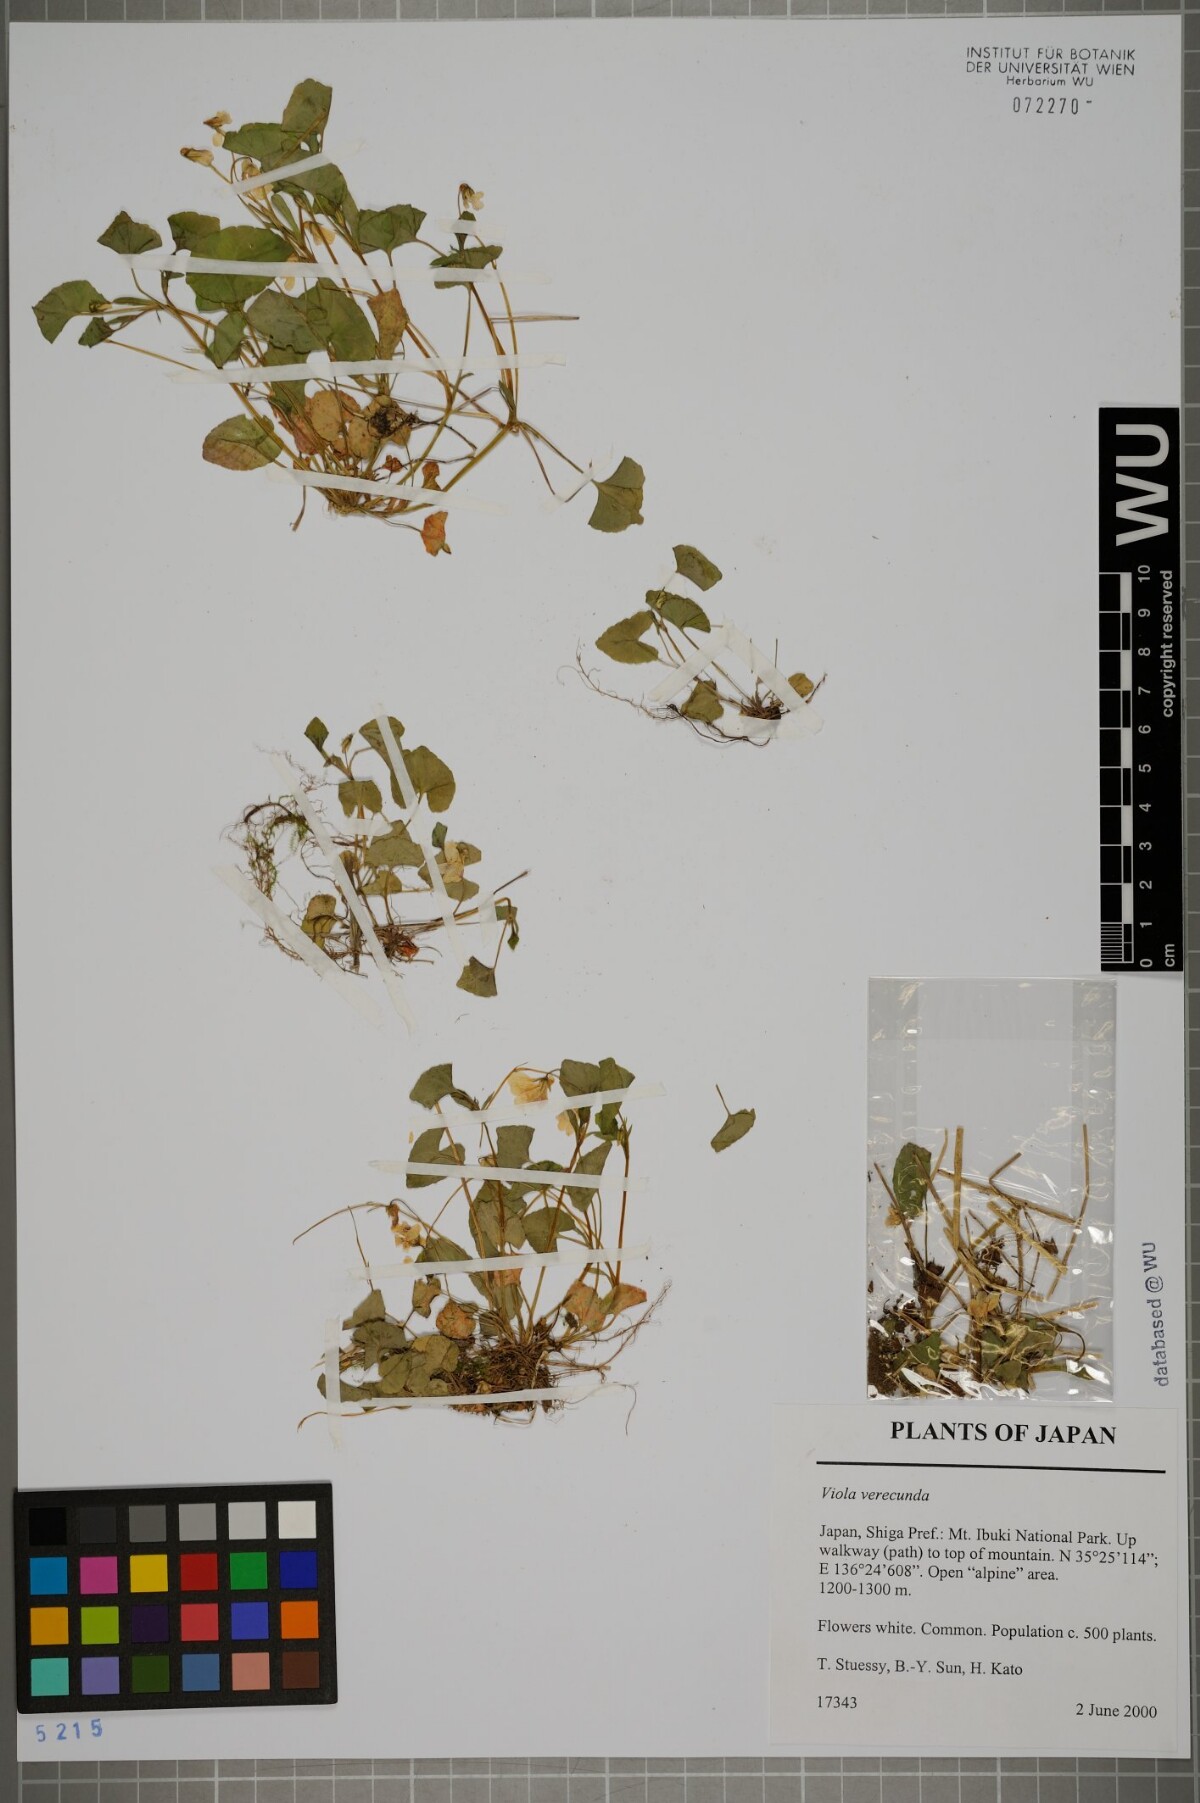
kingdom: Plantae
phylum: Tracheophyta
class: Magnoliopsida
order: Malpighiales
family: Violaceae
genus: Viola
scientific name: Viola hamiltoniana
